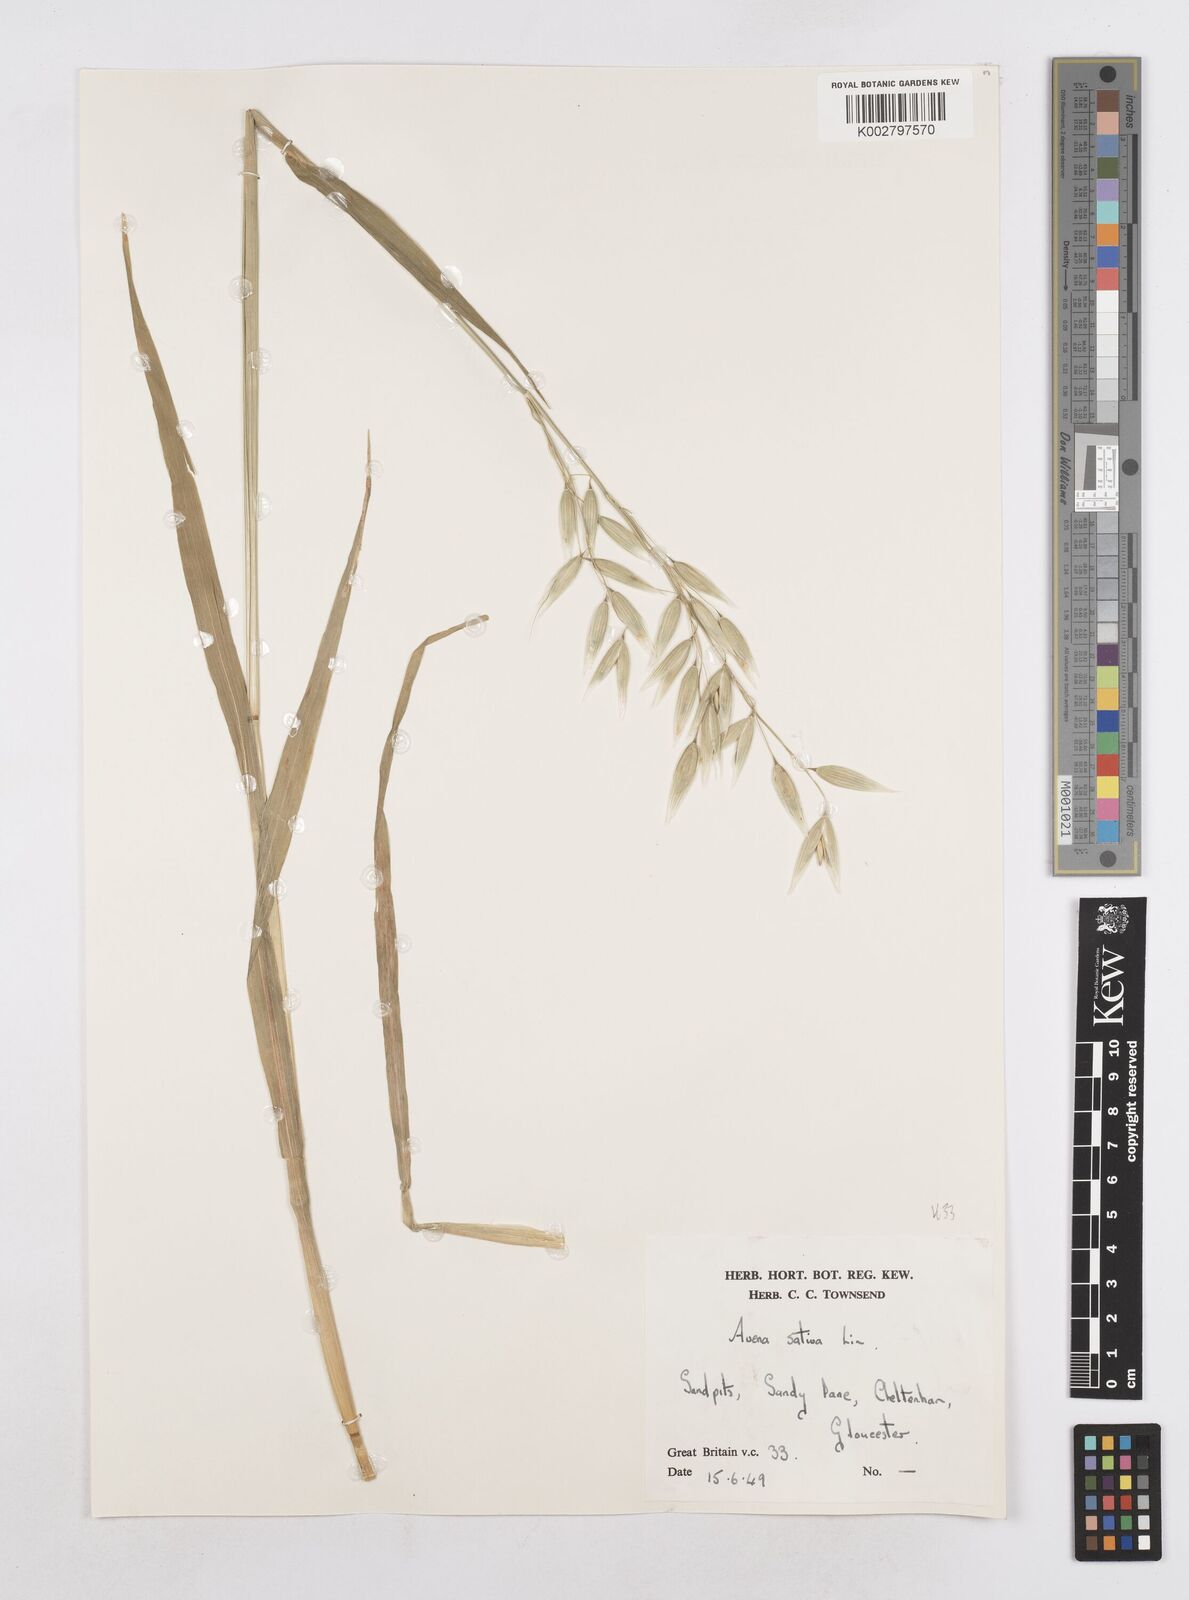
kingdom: Plantae
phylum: Tracheophyta
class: Liliopsida
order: Poales
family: Poaceae
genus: Avena
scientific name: Avena sativa
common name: Oat
